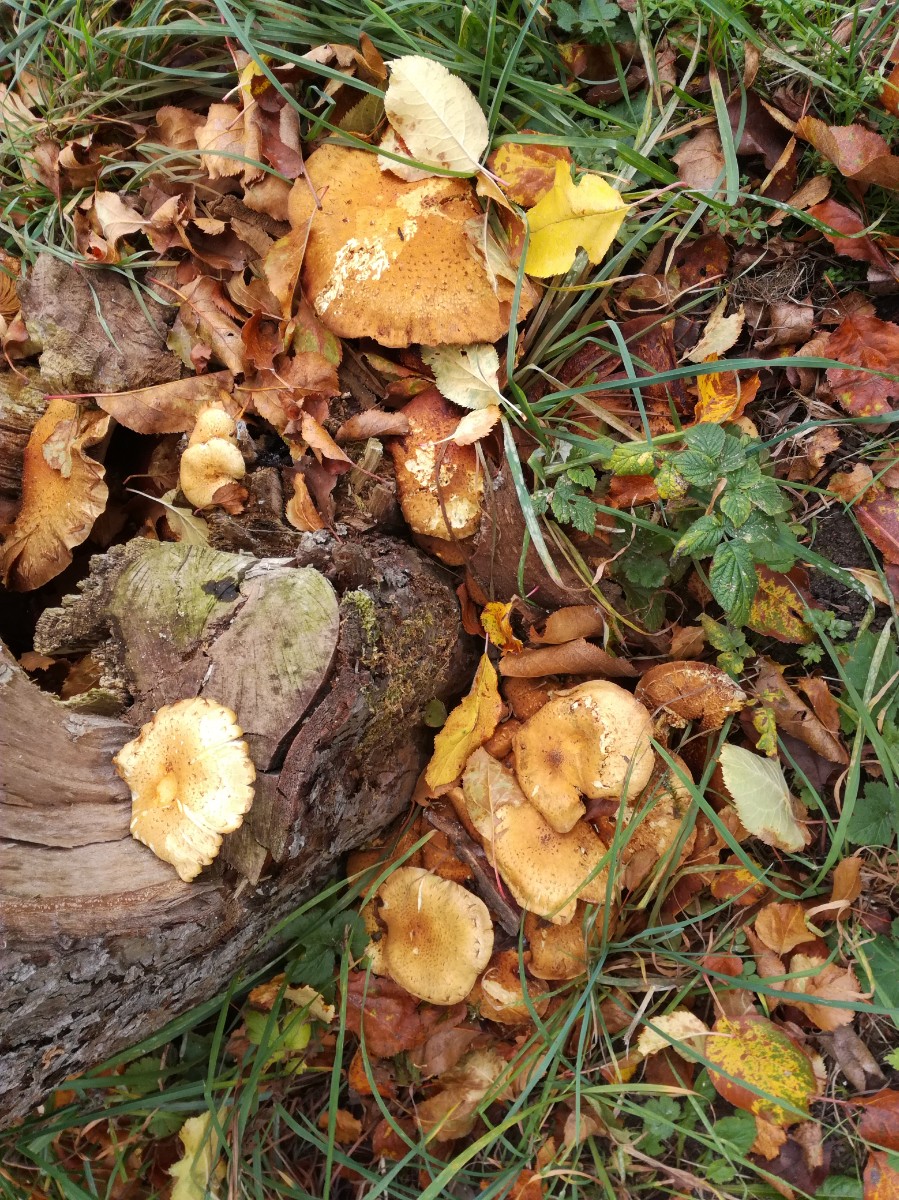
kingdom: Fungi
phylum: Basidiomycota
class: Agaricomycetes
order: Agaricales
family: Strophariaceae
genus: Pholiota
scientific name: Pholiota squarrosa
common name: krumskællet skælhat
